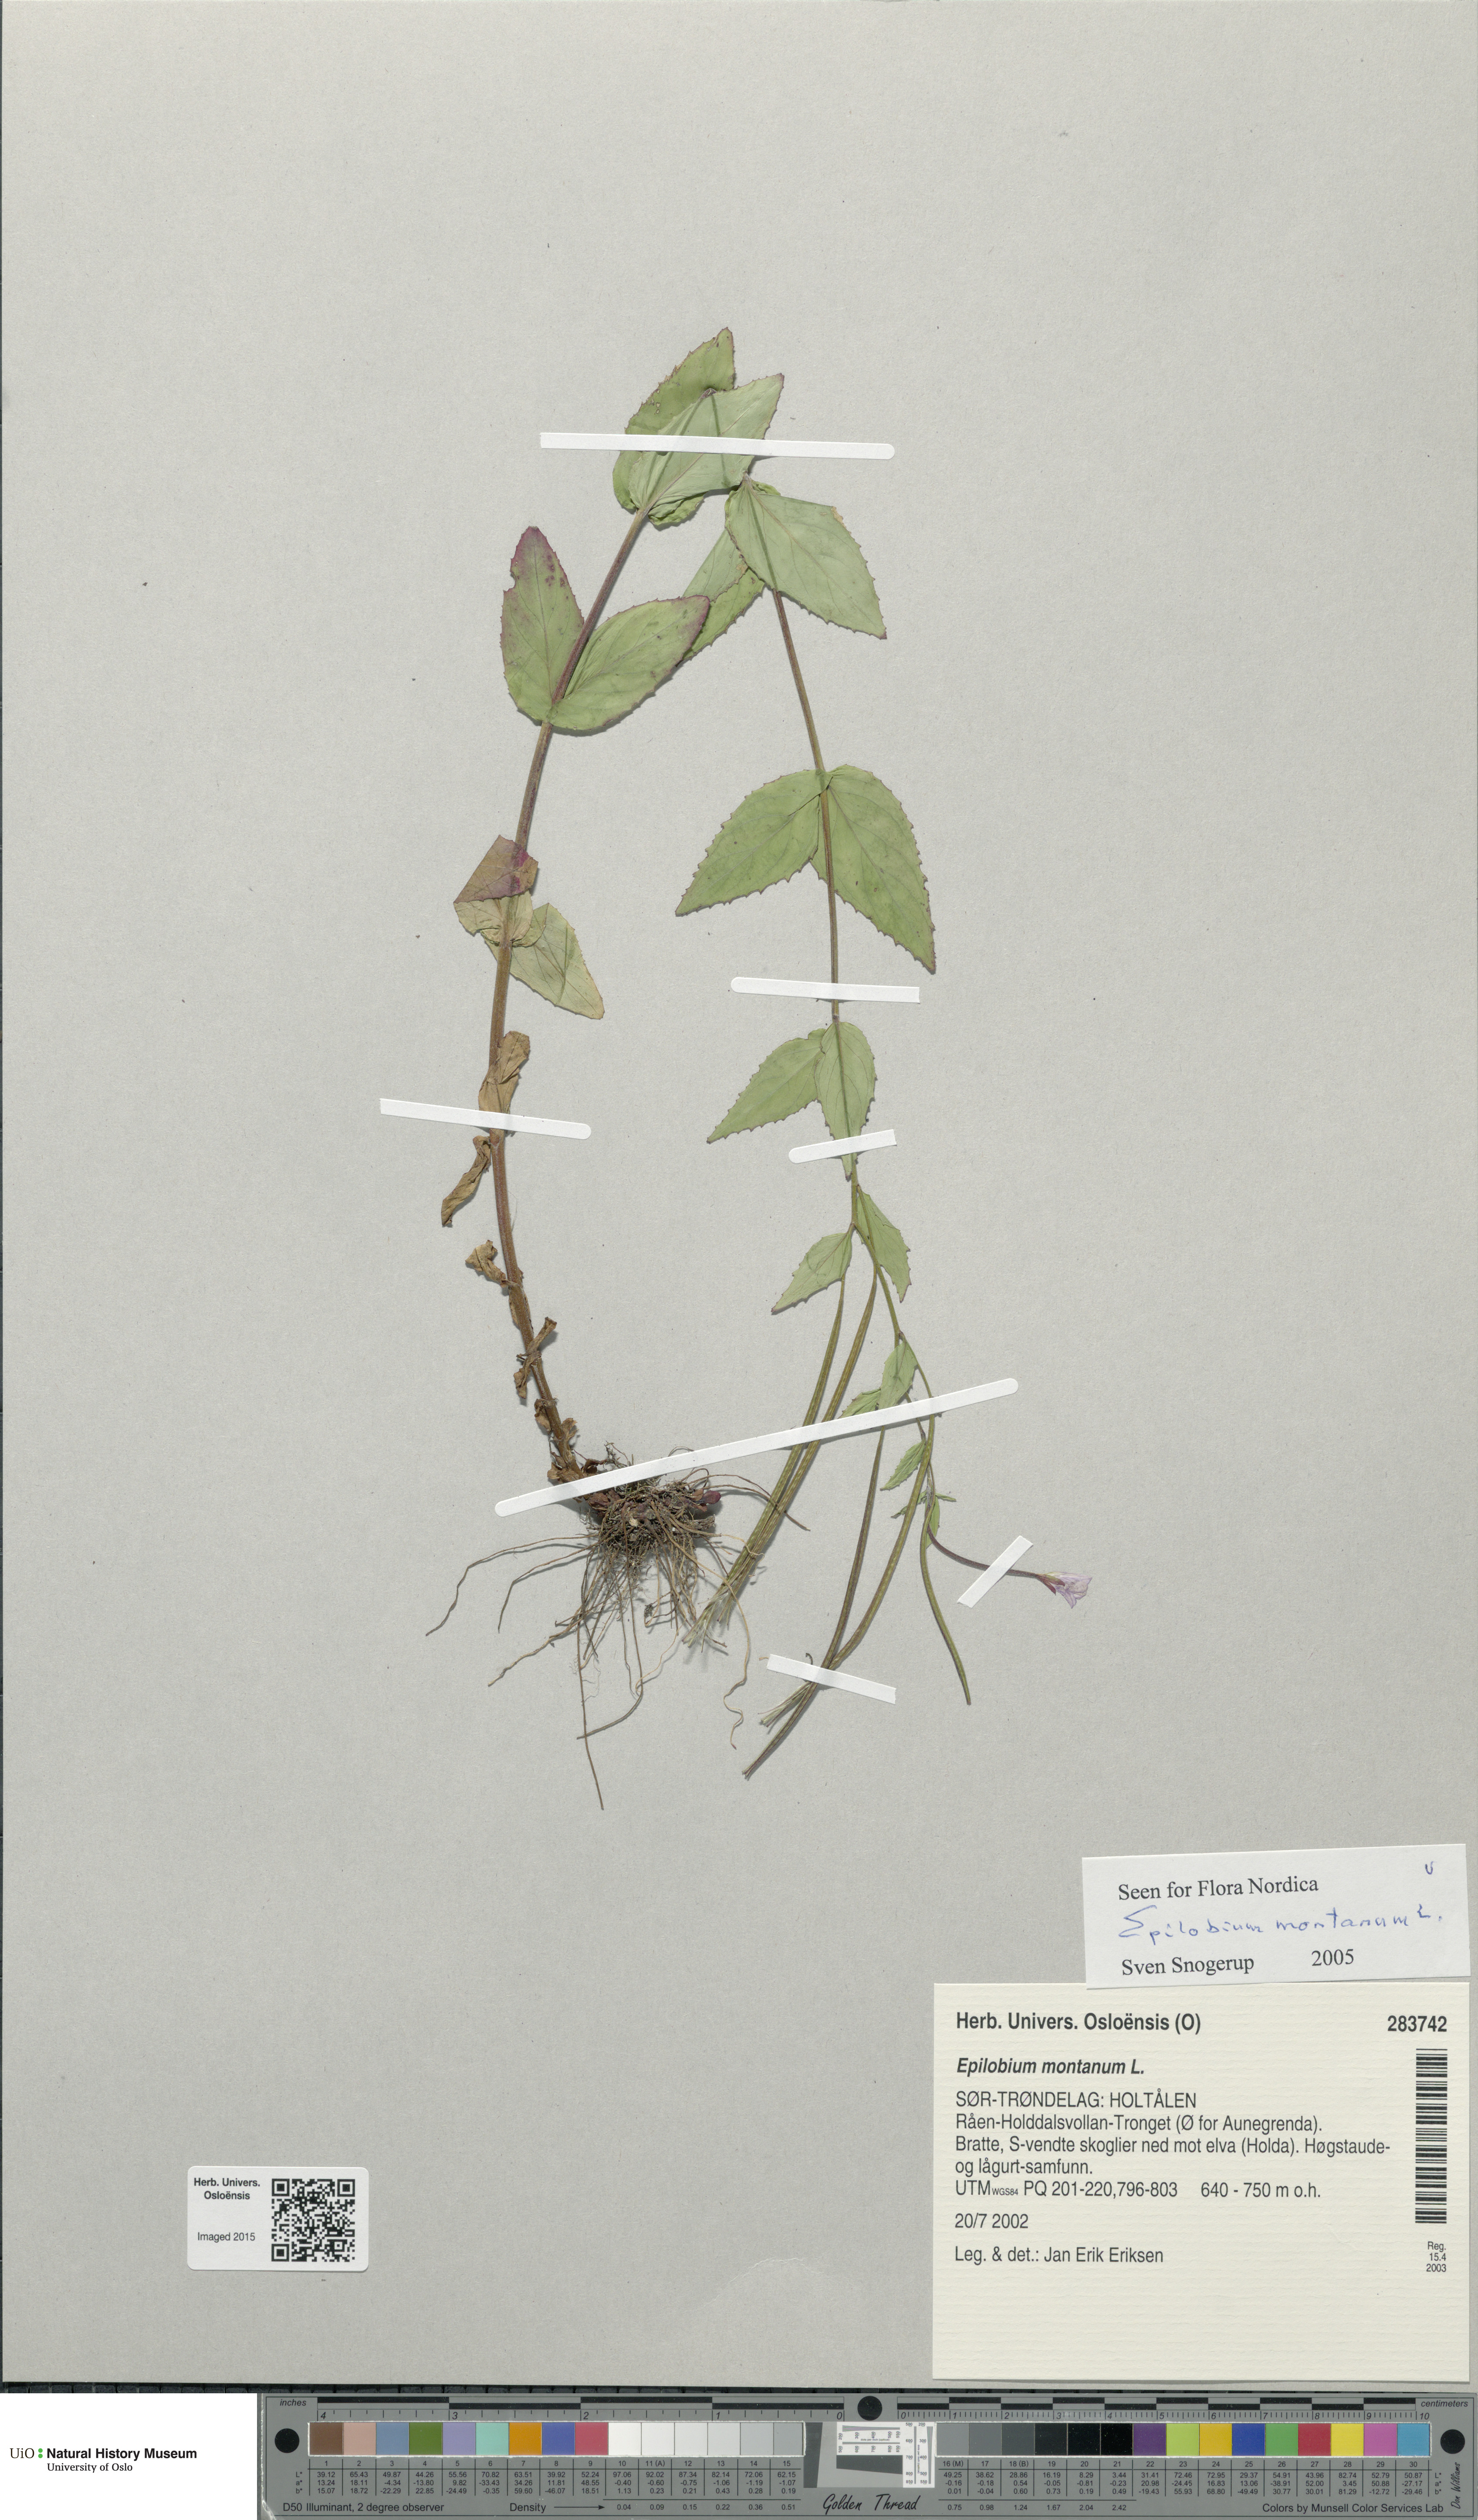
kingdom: Plantae
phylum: Tracheophyta
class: Magnoliopsida
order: Myrtales
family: Onagraceae
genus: Epilobium
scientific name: Epilobium montanum
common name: Broad-leaved willowherb
